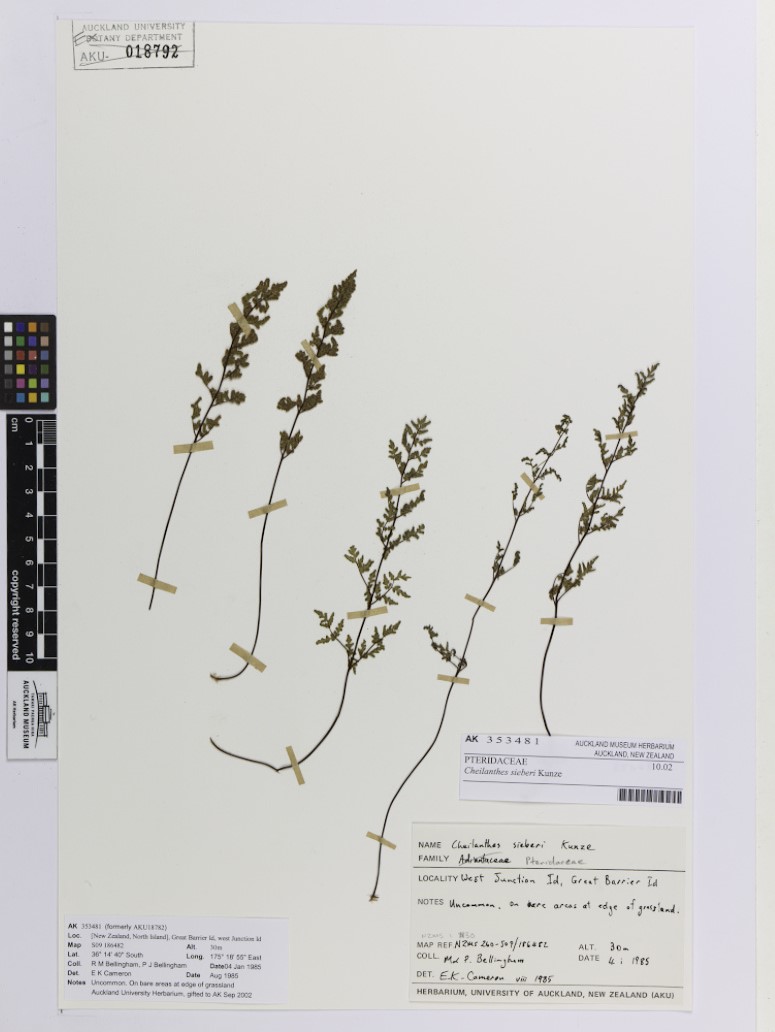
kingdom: Plantae
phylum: Tracheophyta
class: Polypodiopsida
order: Polypodiales
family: Pteridaceae
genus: Cheilanthes
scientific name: Cheilanthes sieberi
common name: Mulga fern
